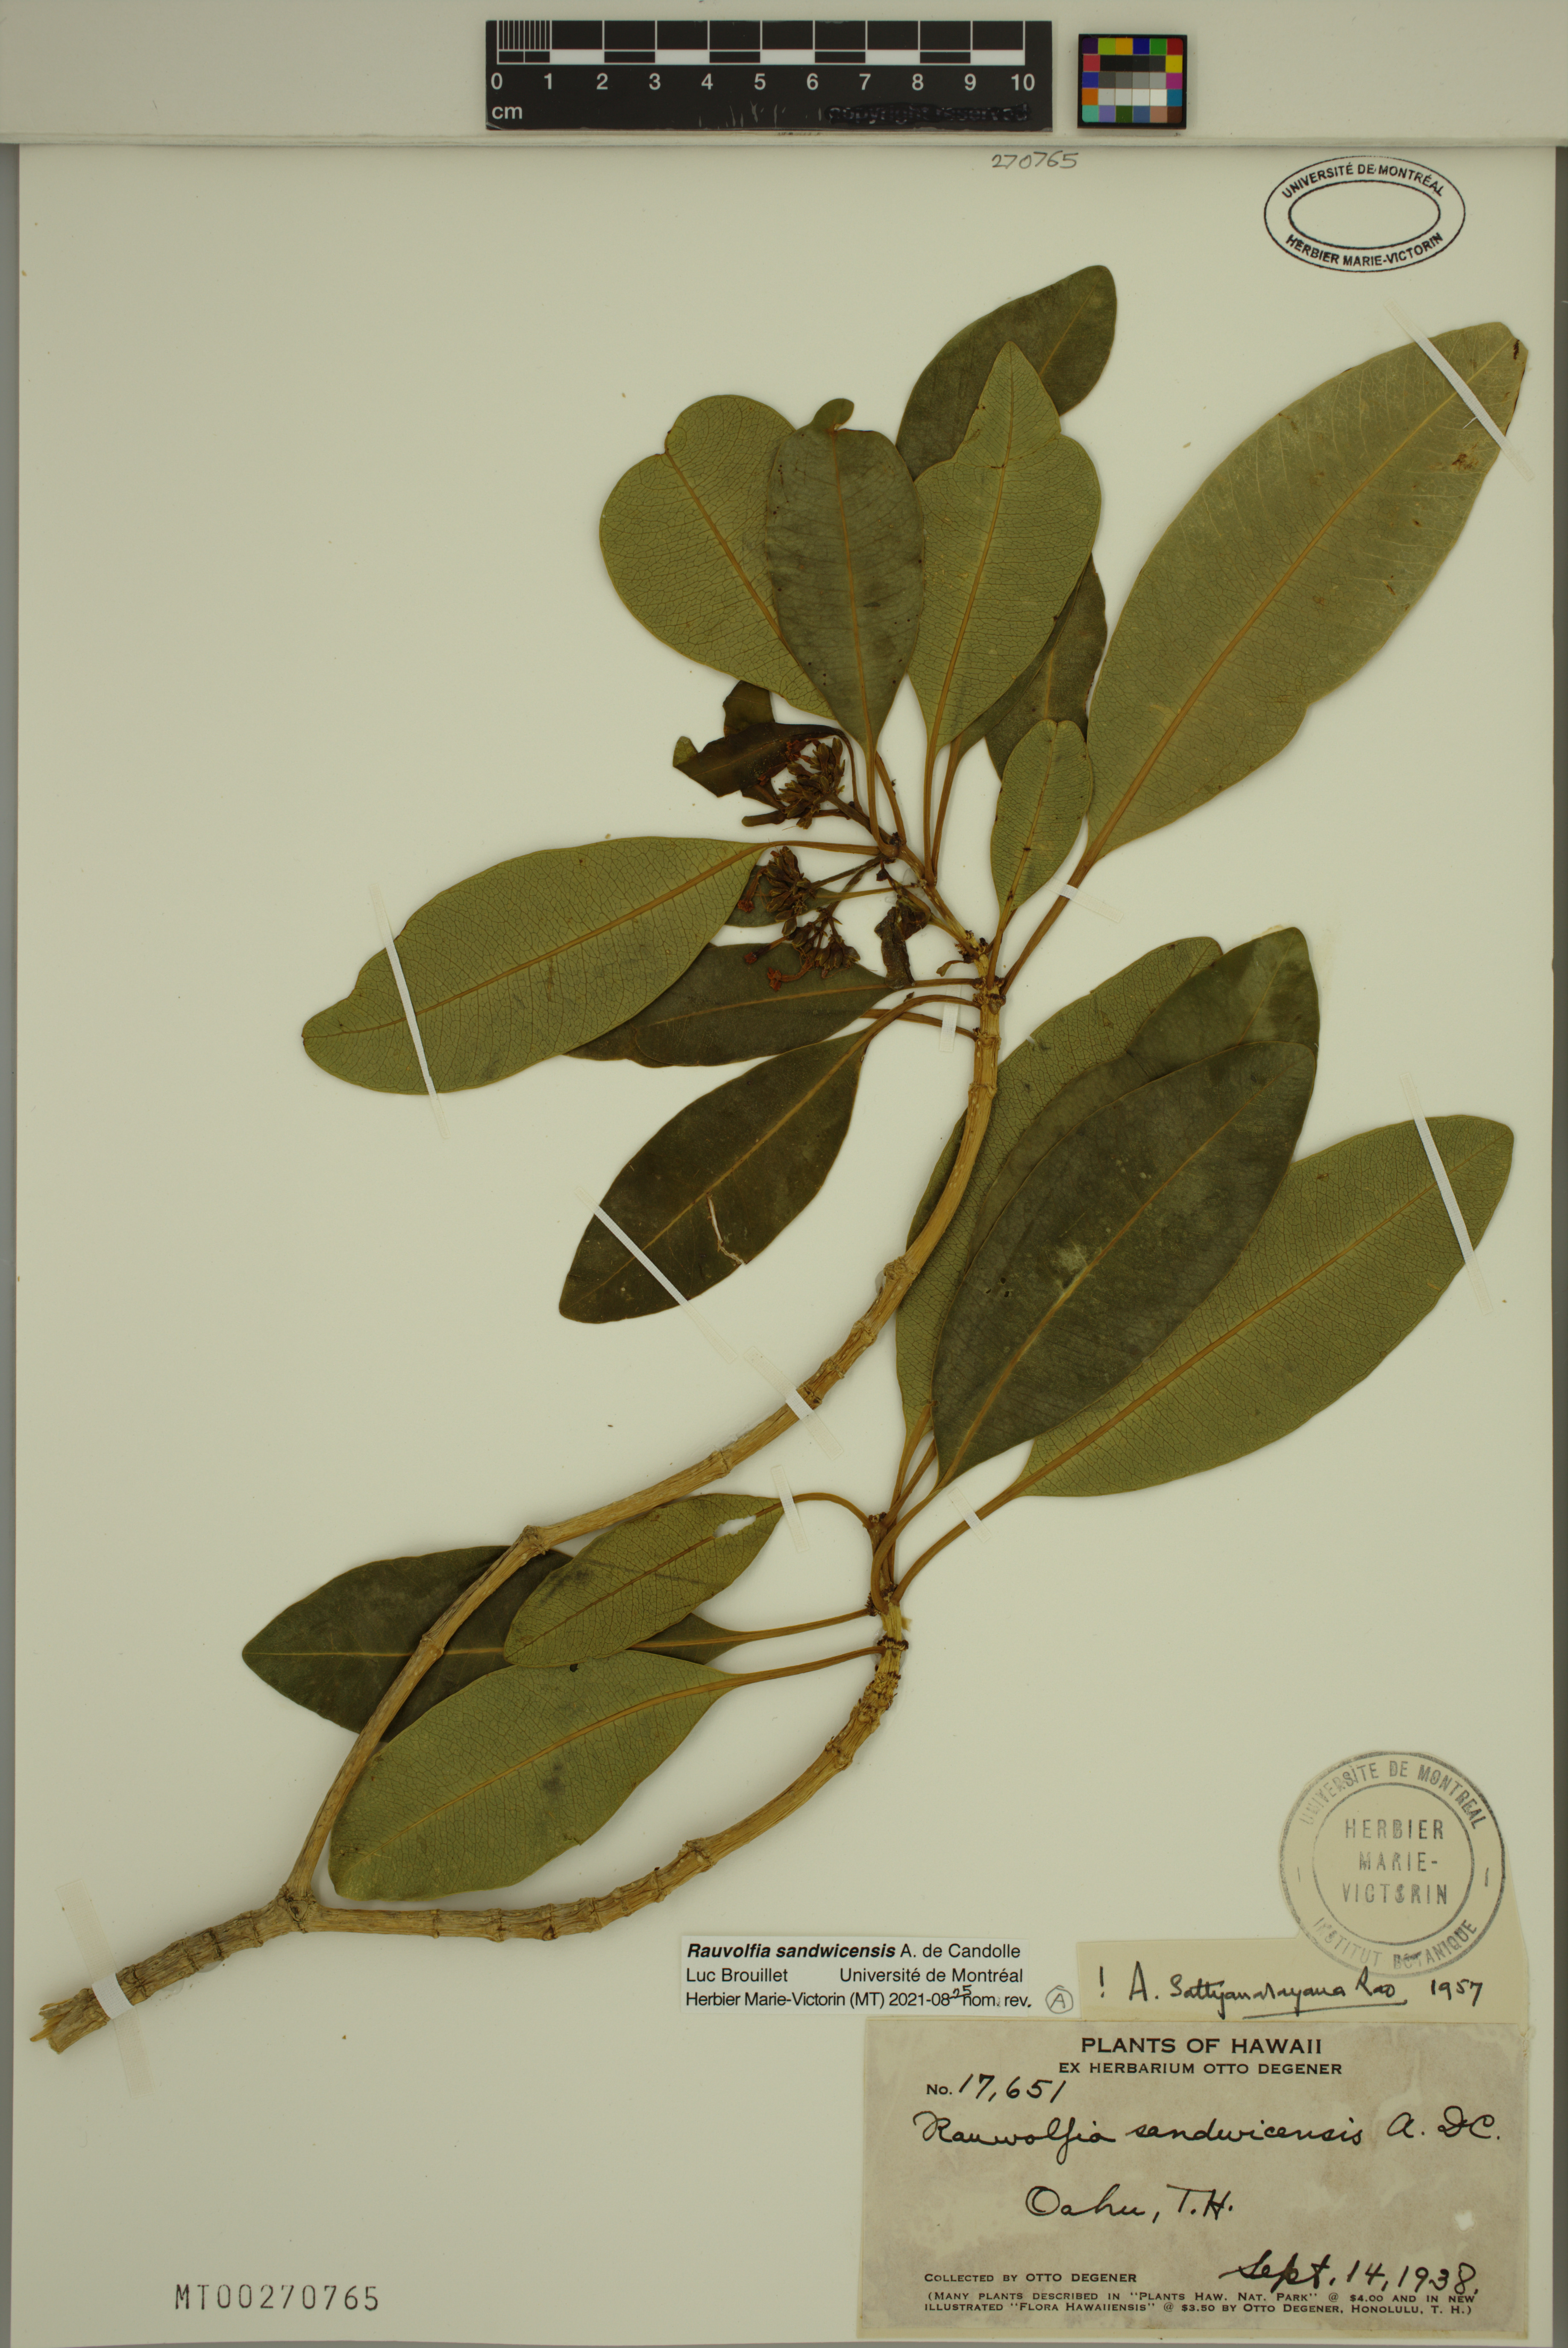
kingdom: Plantae
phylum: Tracheophyta
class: Magnoliopsida
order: Gentianales
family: Apocynaceae
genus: Rauvolfia
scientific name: Rauvolfia sandwicensis
